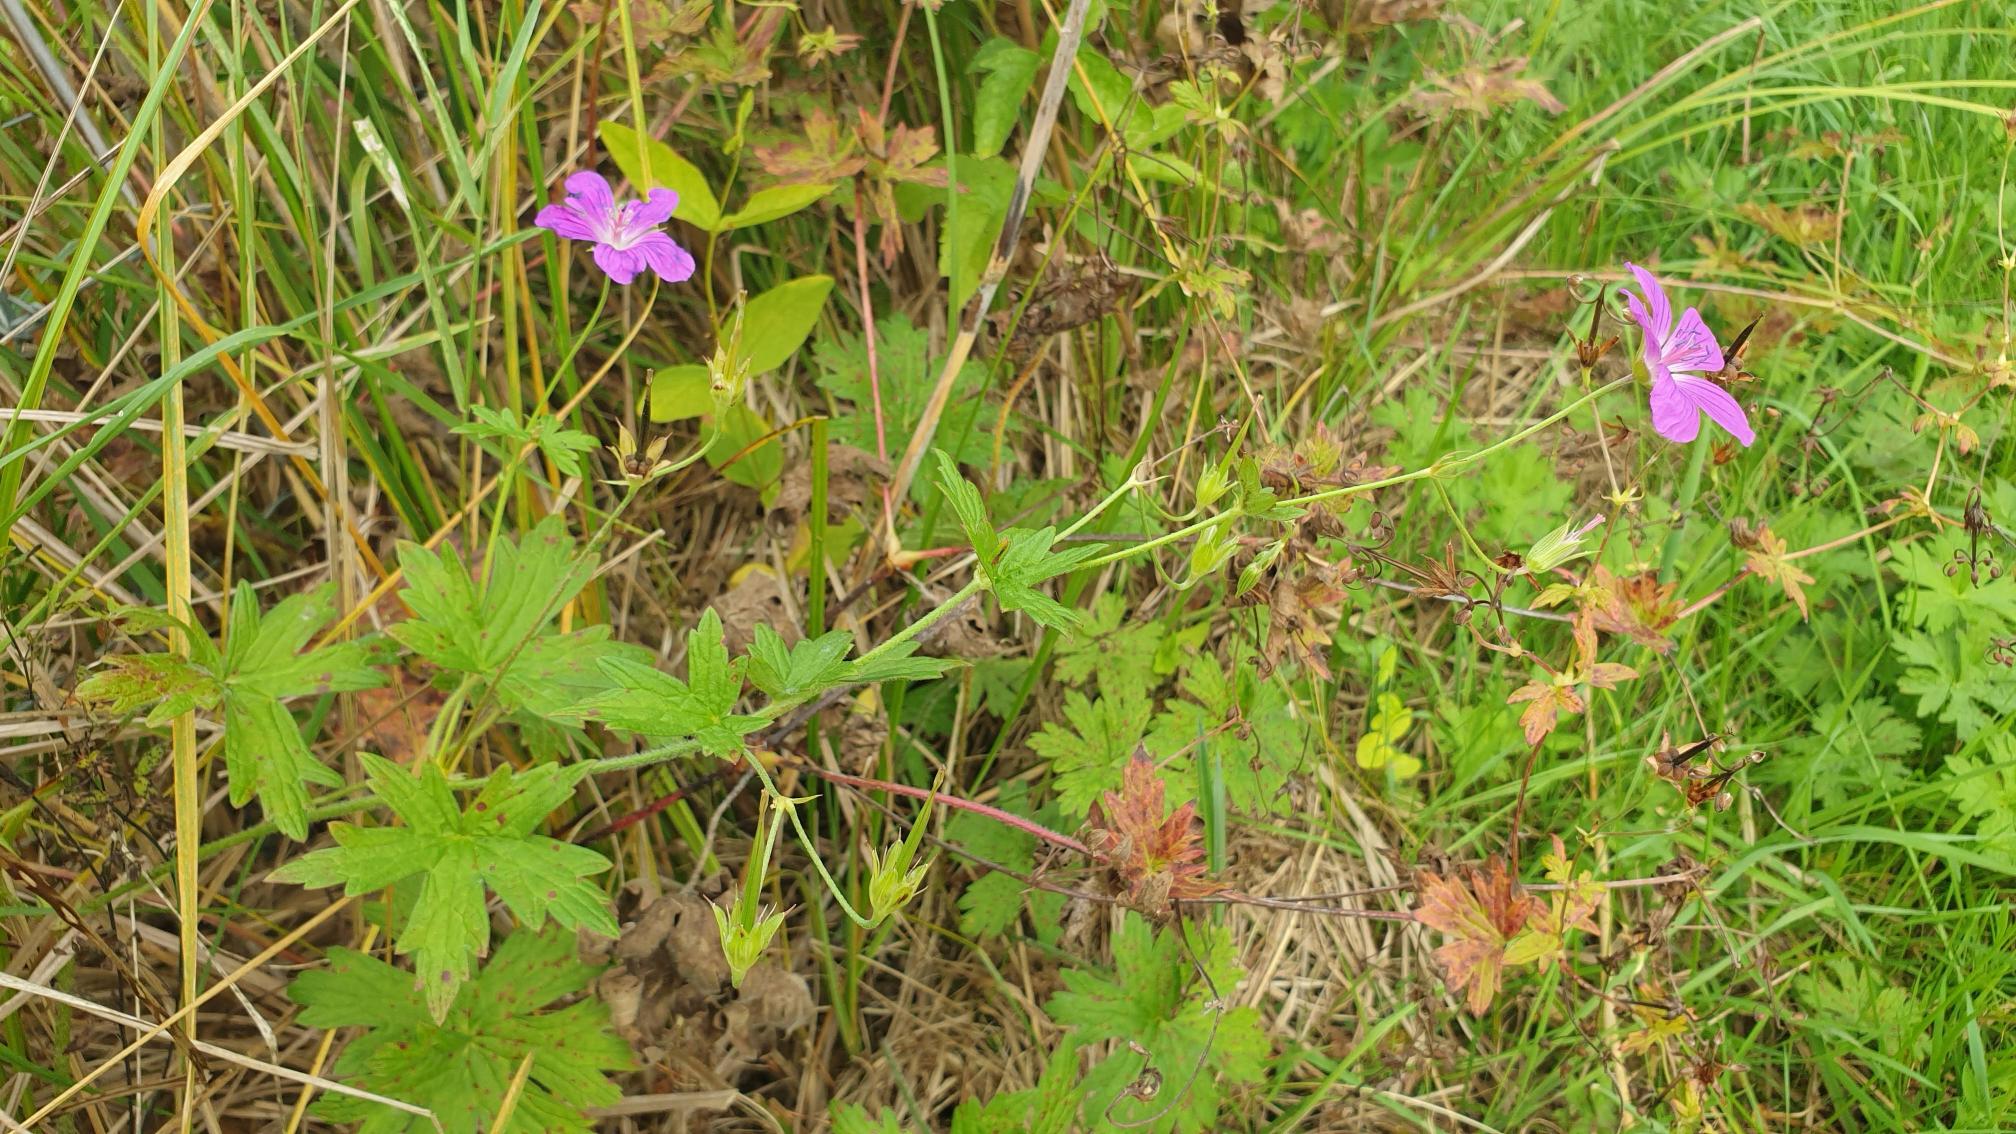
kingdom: Plantae
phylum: Tracheophyta
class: Magnoliopsida
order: Geraniales
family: Geraniaceae
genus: Geranium
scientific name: Geranium palustre
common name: Kær-storkenæb
